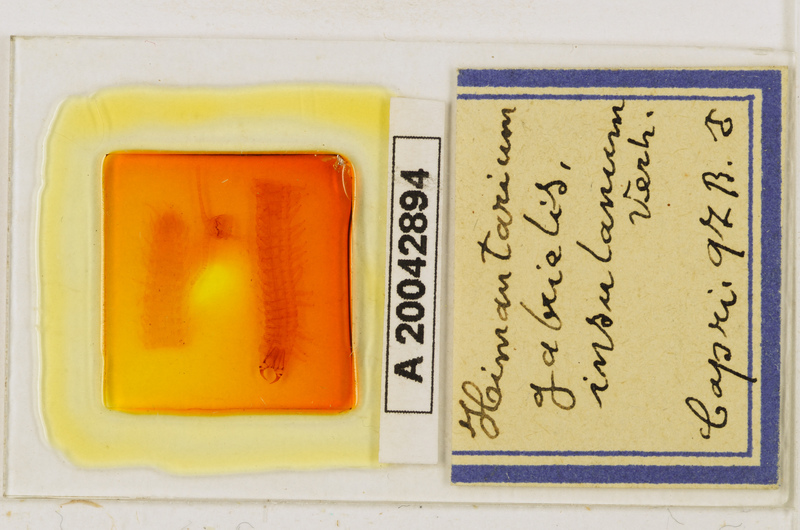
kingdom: Animalia
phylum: Arthropoda
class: Chilopoda
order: Geophilomorpha
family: Himantariidae
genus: Himantarium
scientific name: Himantarium gabrielis
